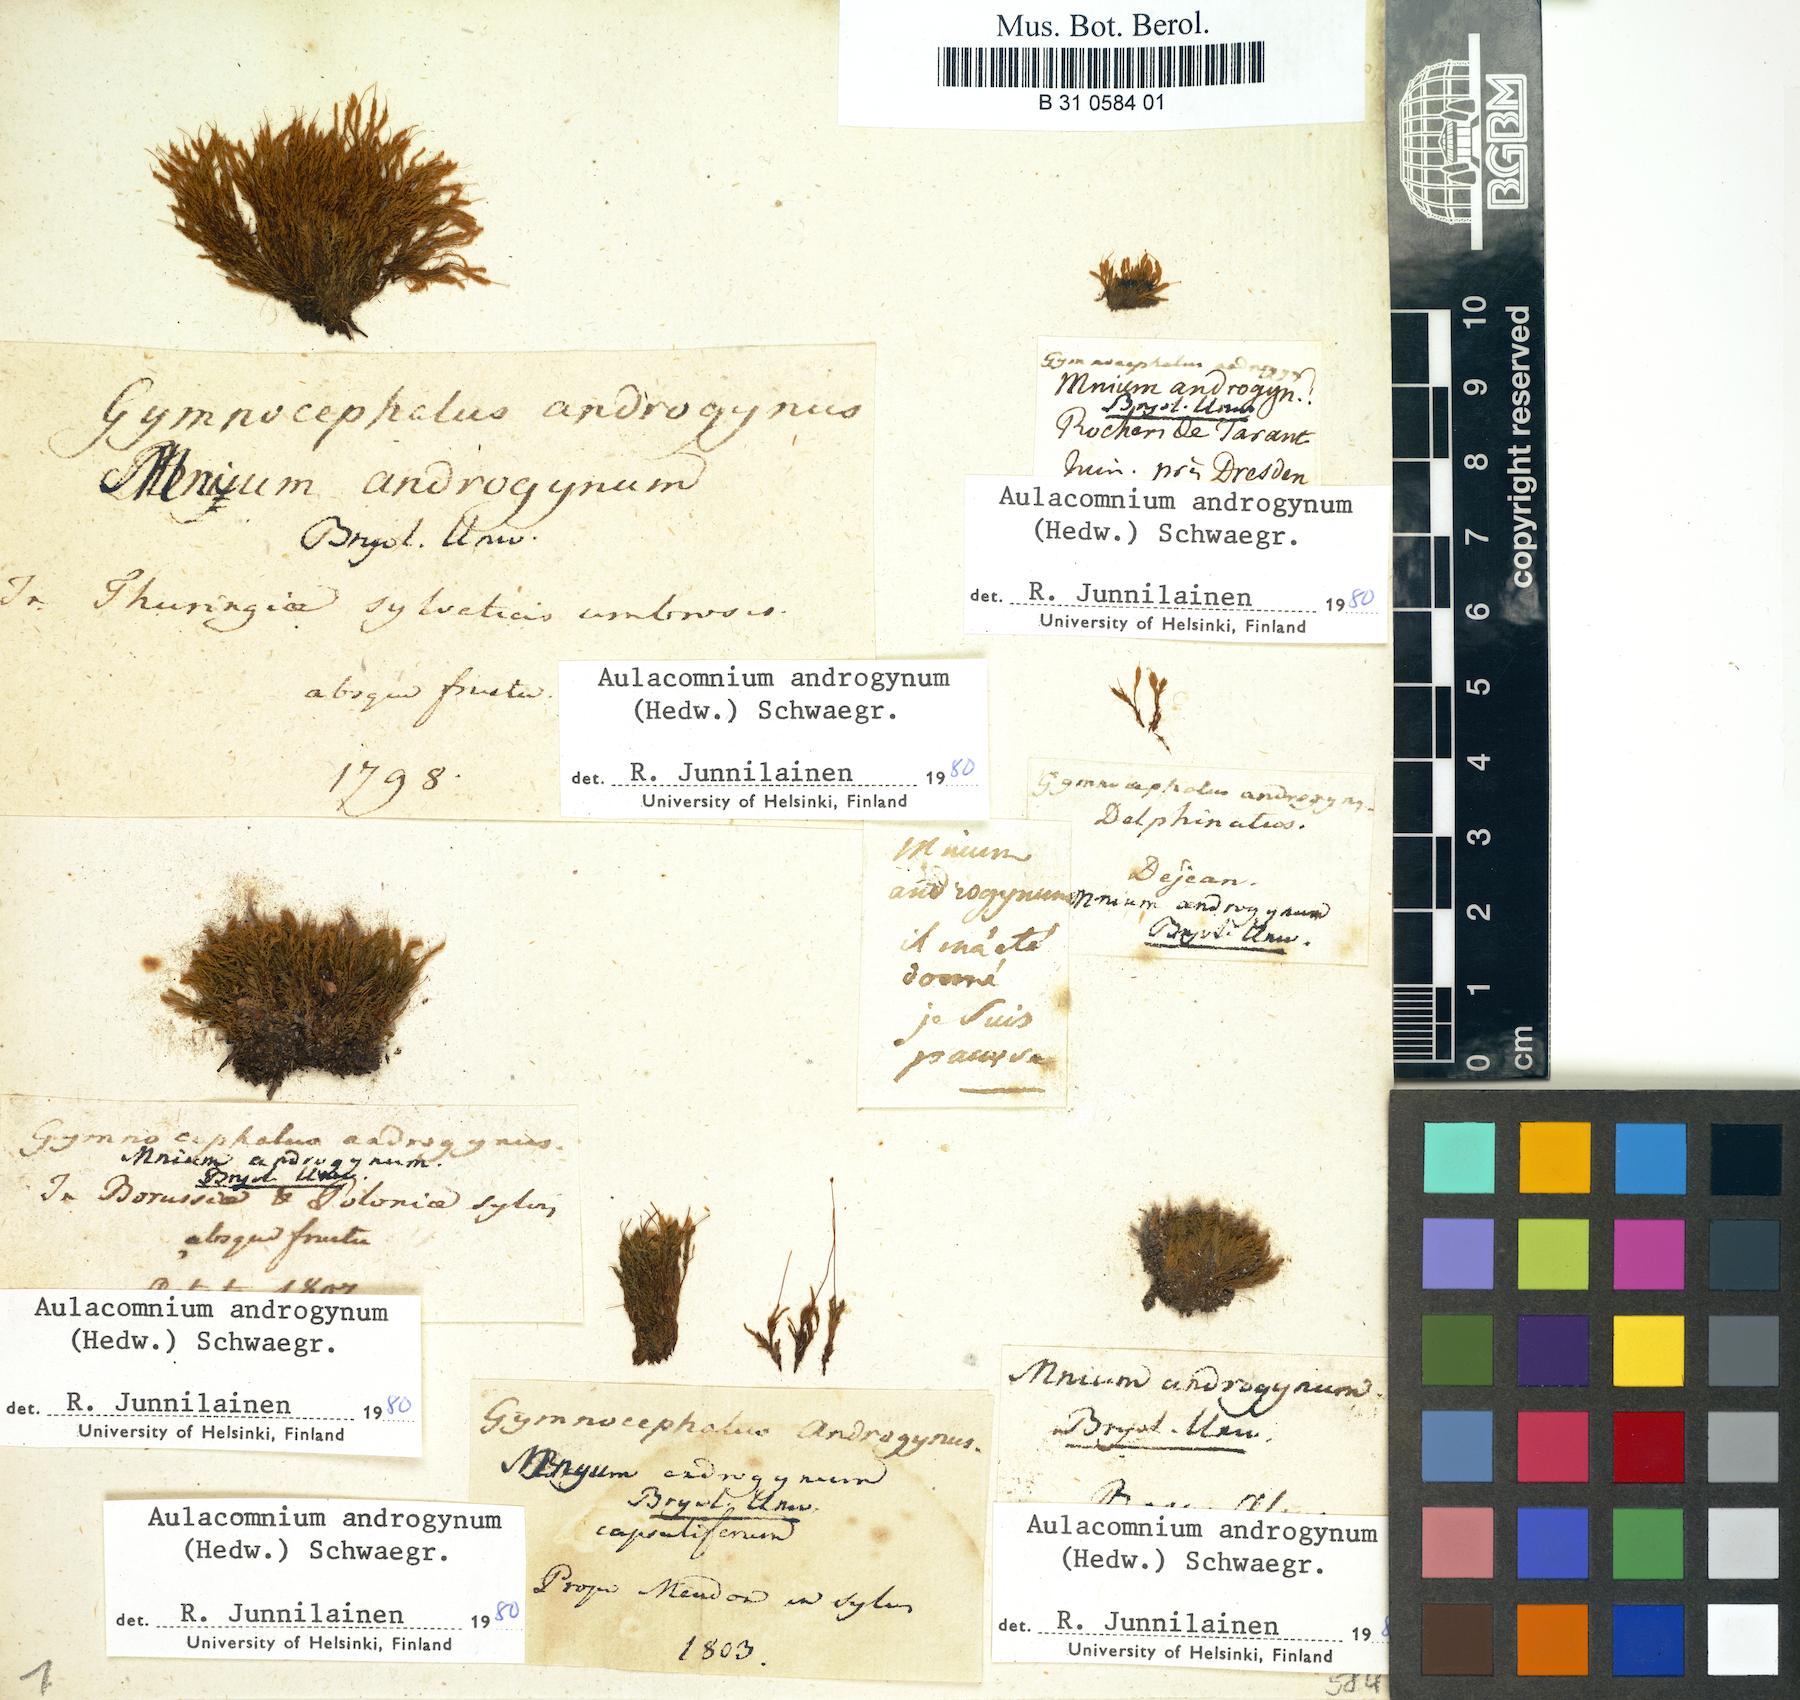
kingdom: Plantae
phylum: Bryophyta
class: Bryopsida
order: Aulacomniales
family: Aulacomniaceae
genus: Aulacomnium
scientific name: Aulacomnium androgynum
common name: Little groove moss
